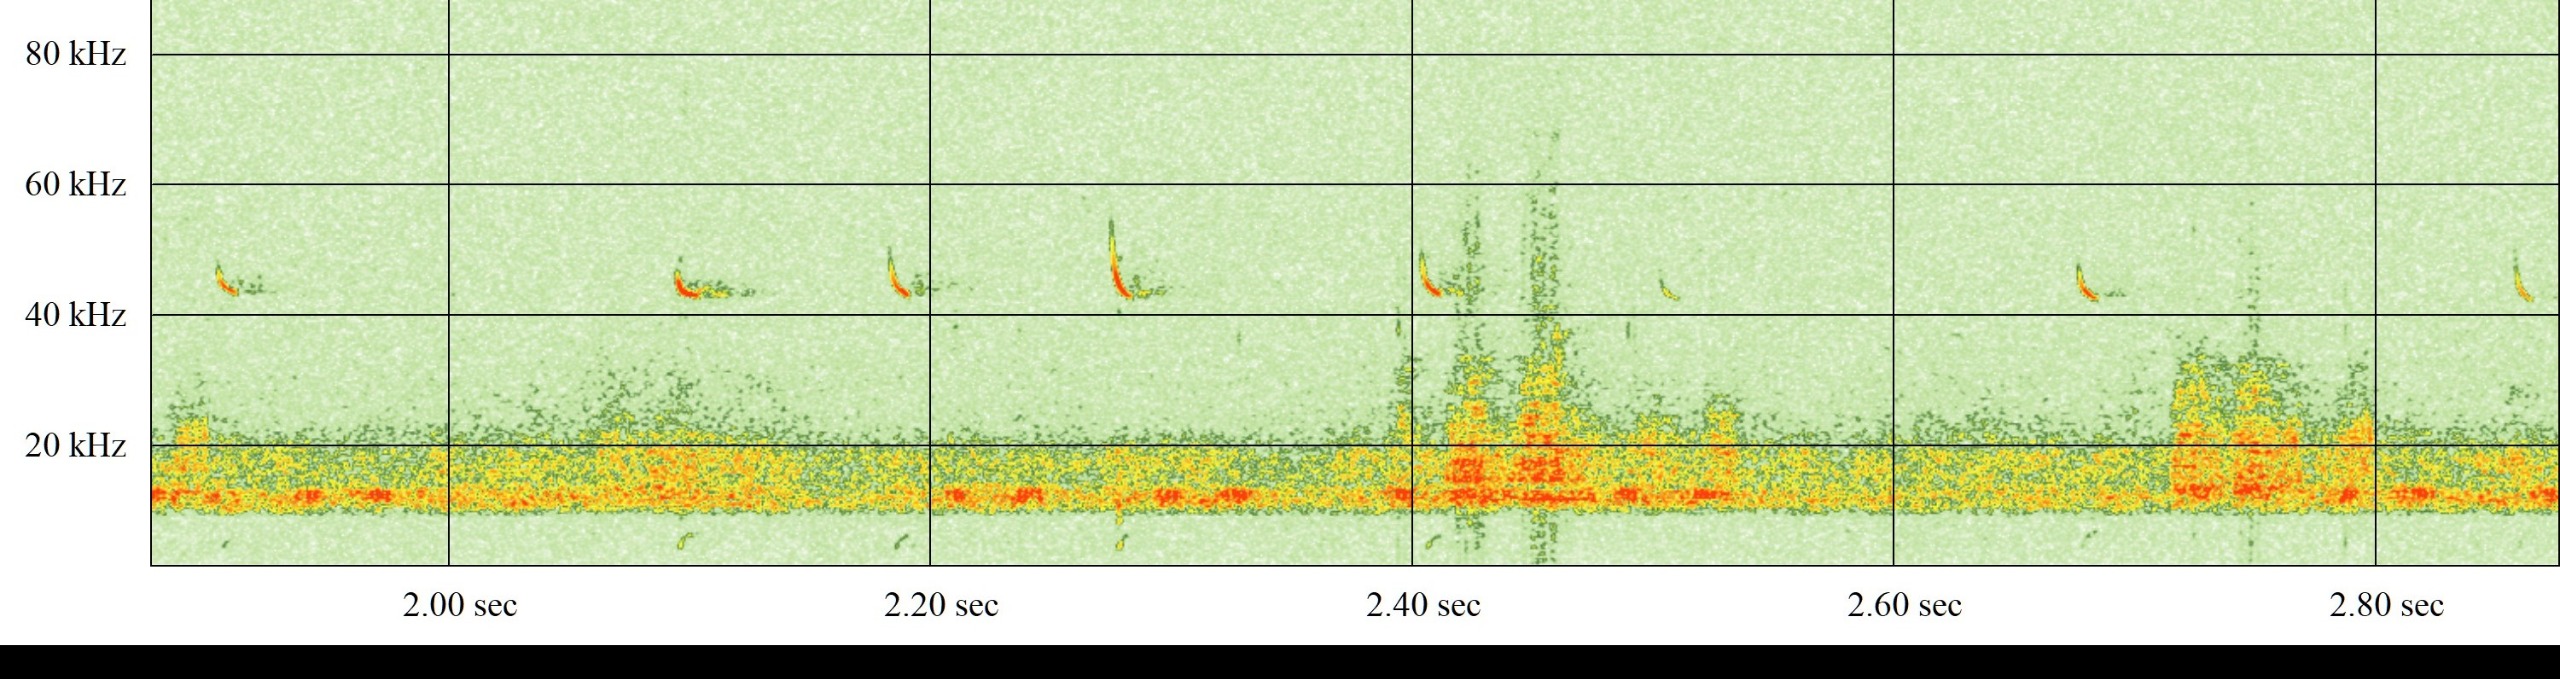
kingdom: Animalia
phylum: Chordata
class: Mammalia
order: Chiroptera
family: Vespertilionidae
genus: Pipistrellus
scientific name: Pipistrellus pipistrellus
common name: Pipistrelflagermus
